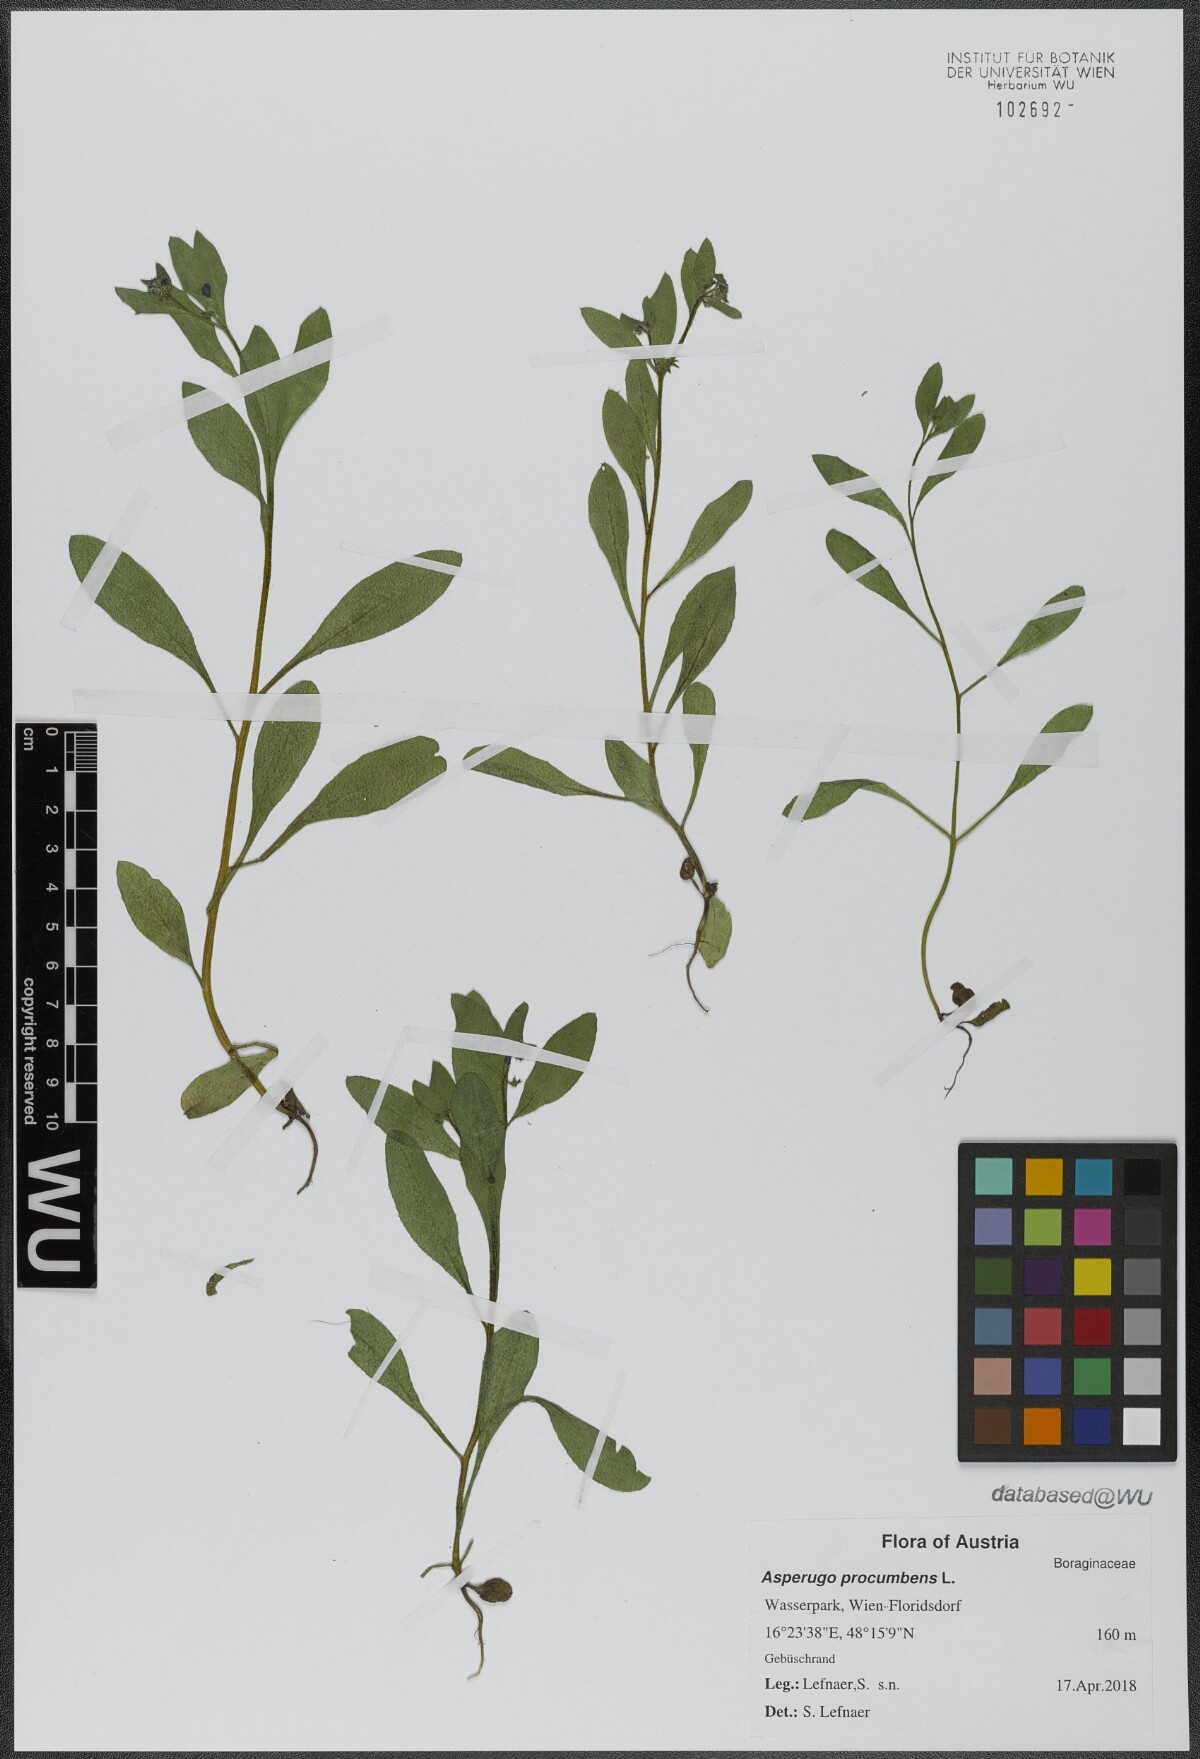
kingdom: Plantae
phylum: Tracheophyta
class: Magnoliopsida
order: Boraginales
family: Boraginaceae
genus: Asperugo
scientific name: Asperugo procumbens
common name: Madwort
